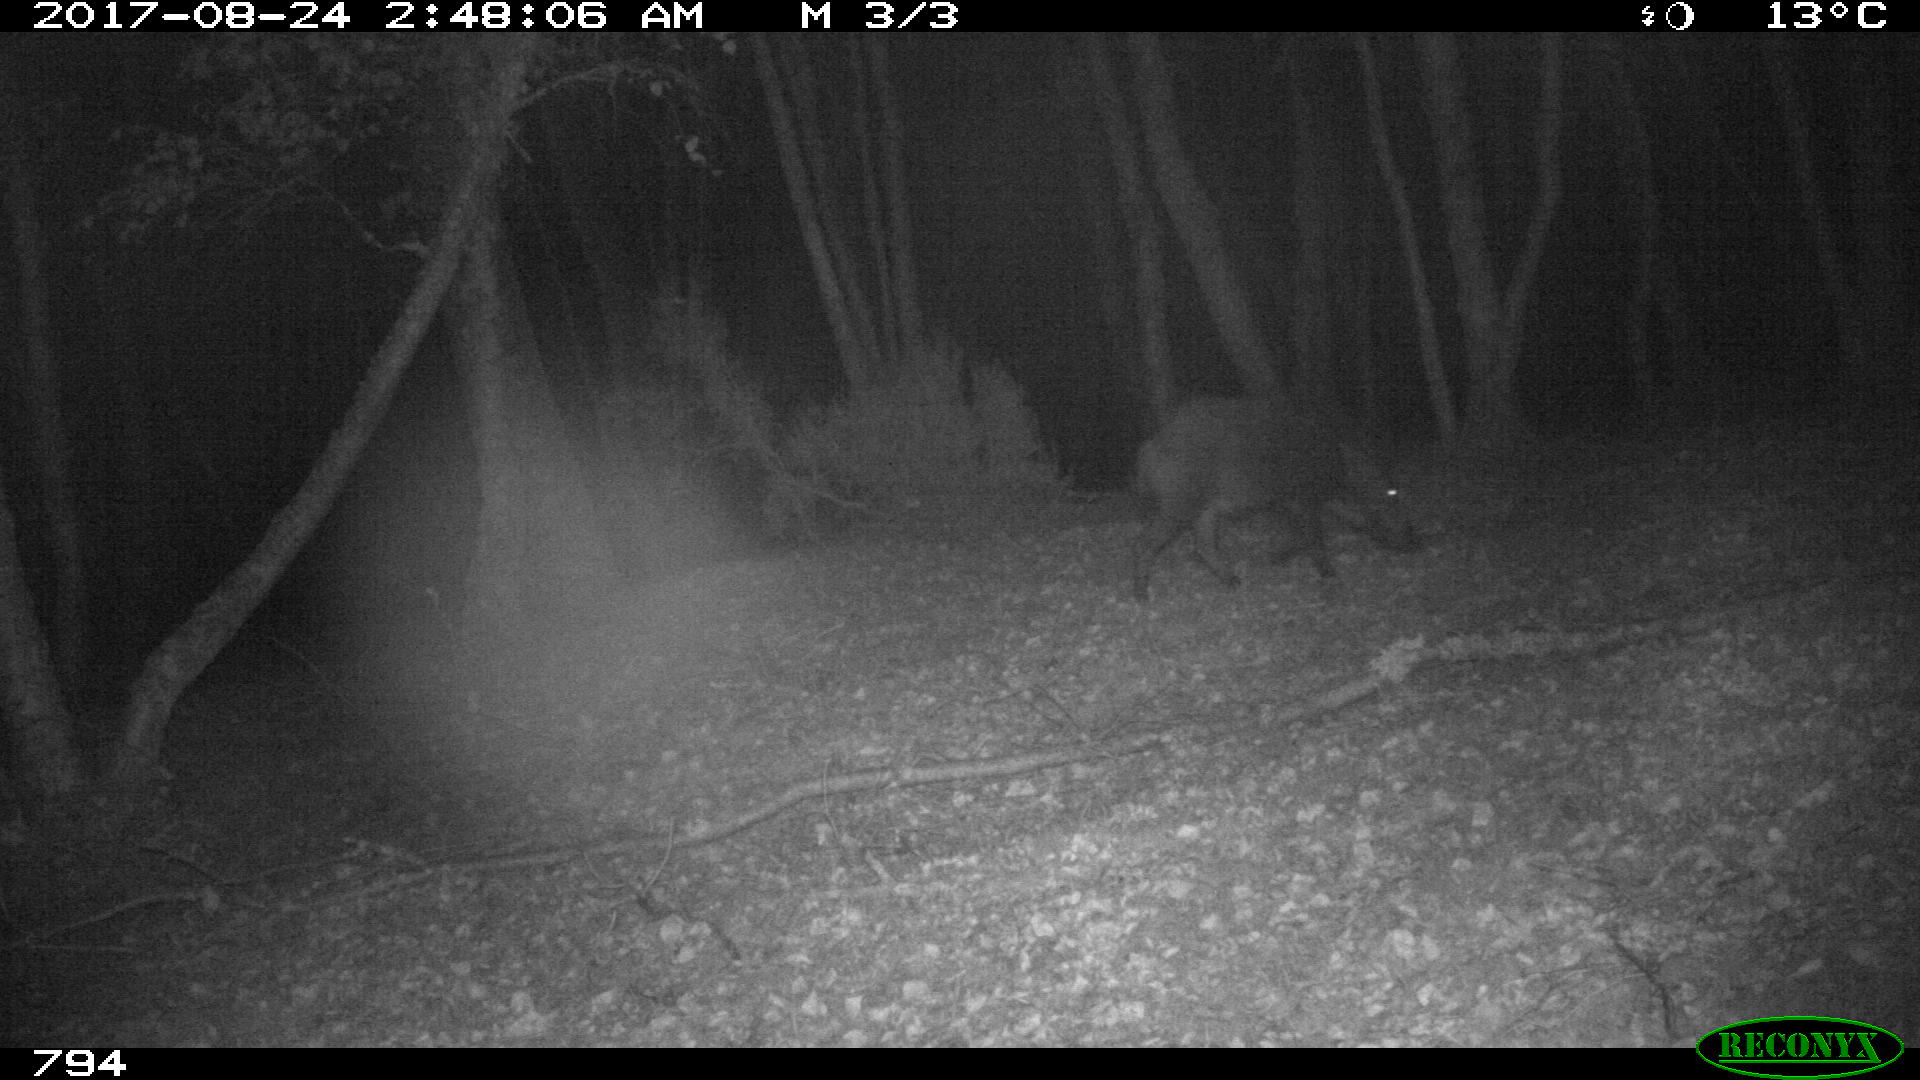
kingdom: Animalia
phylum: Chordata
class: Mammalia
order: Artiodactyla
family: Suidae
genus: Sus
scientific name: Sus scrofa
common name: Wild boar
